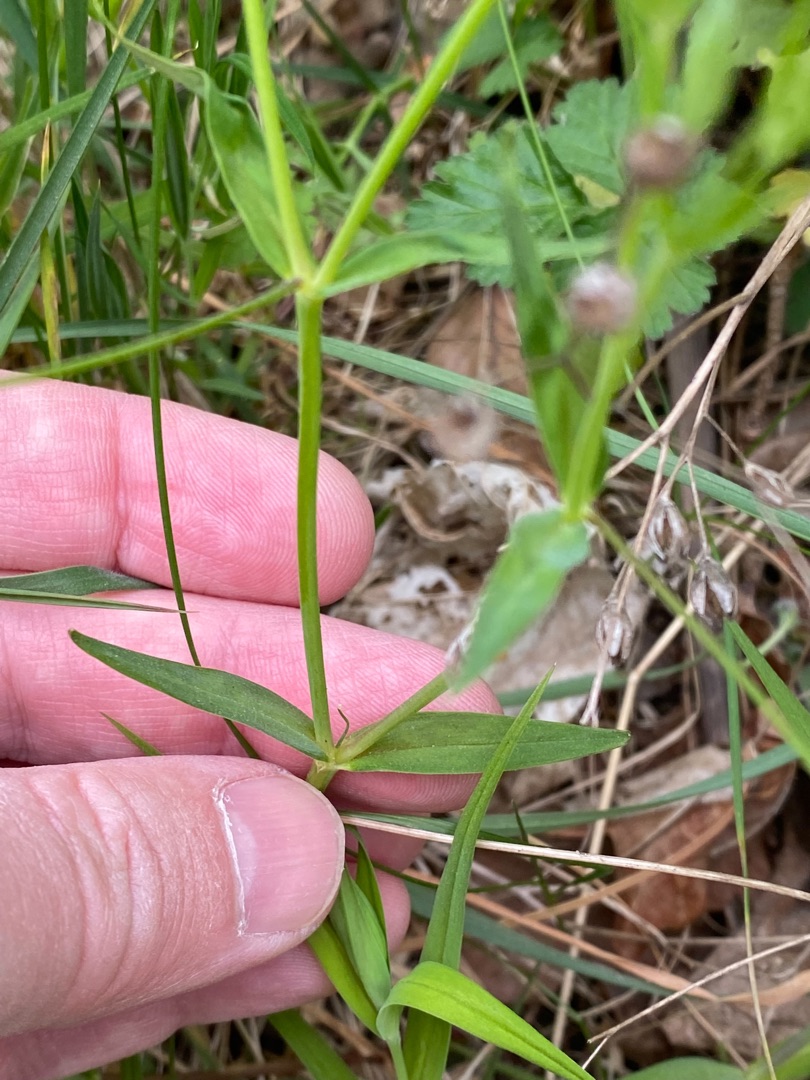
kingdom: Plantae
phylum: Tracheophyta
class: Magnoliopsida
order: Caryophyllales
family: Caryophyllaceae
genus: Rabelera
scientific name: Rabelera holostea
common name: Stor fladstjerne
